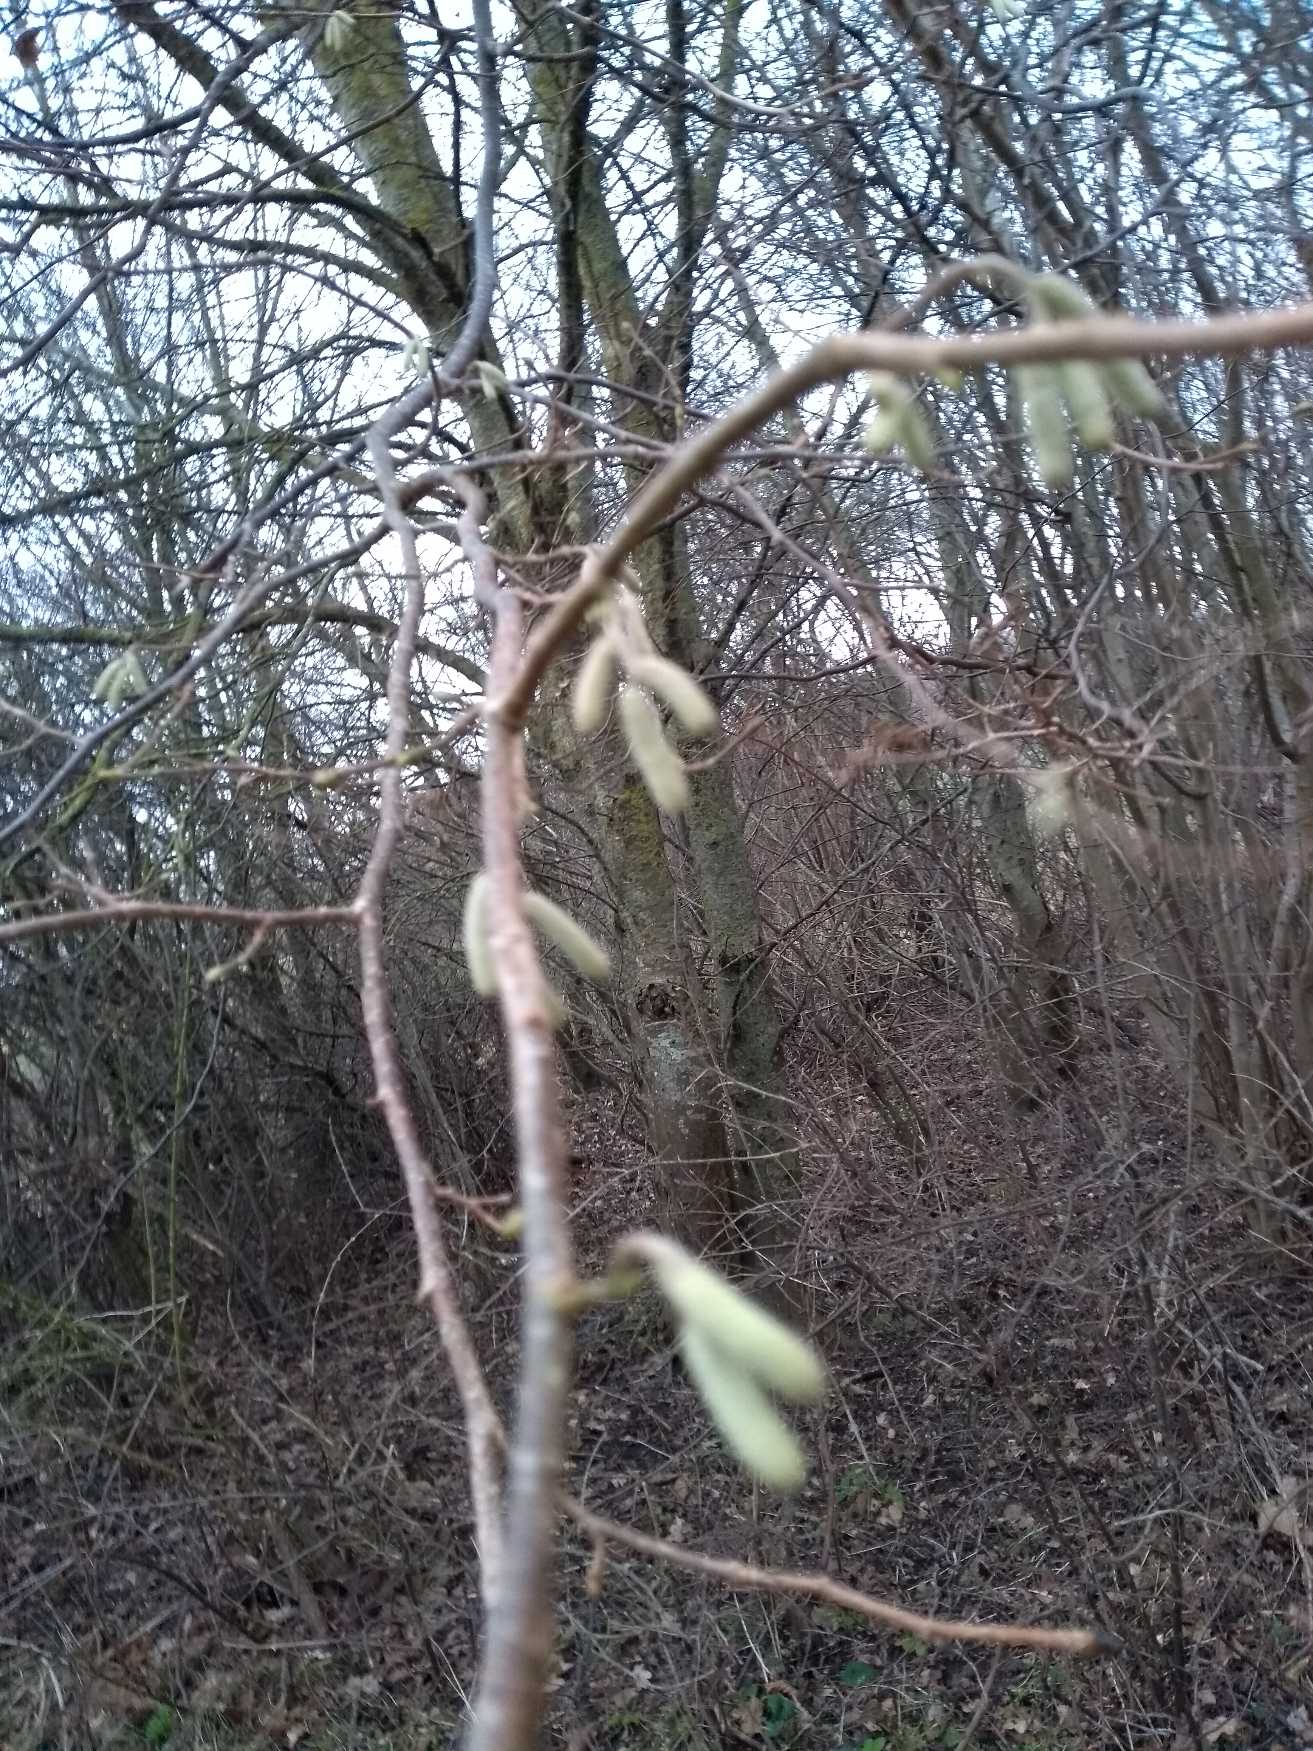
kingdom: Plantae
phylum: Tracheophyta
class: Magnoliopsida
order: Fagales
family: Betulaceae
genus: Corylus
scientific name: Corylus avellana
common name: Hassel
